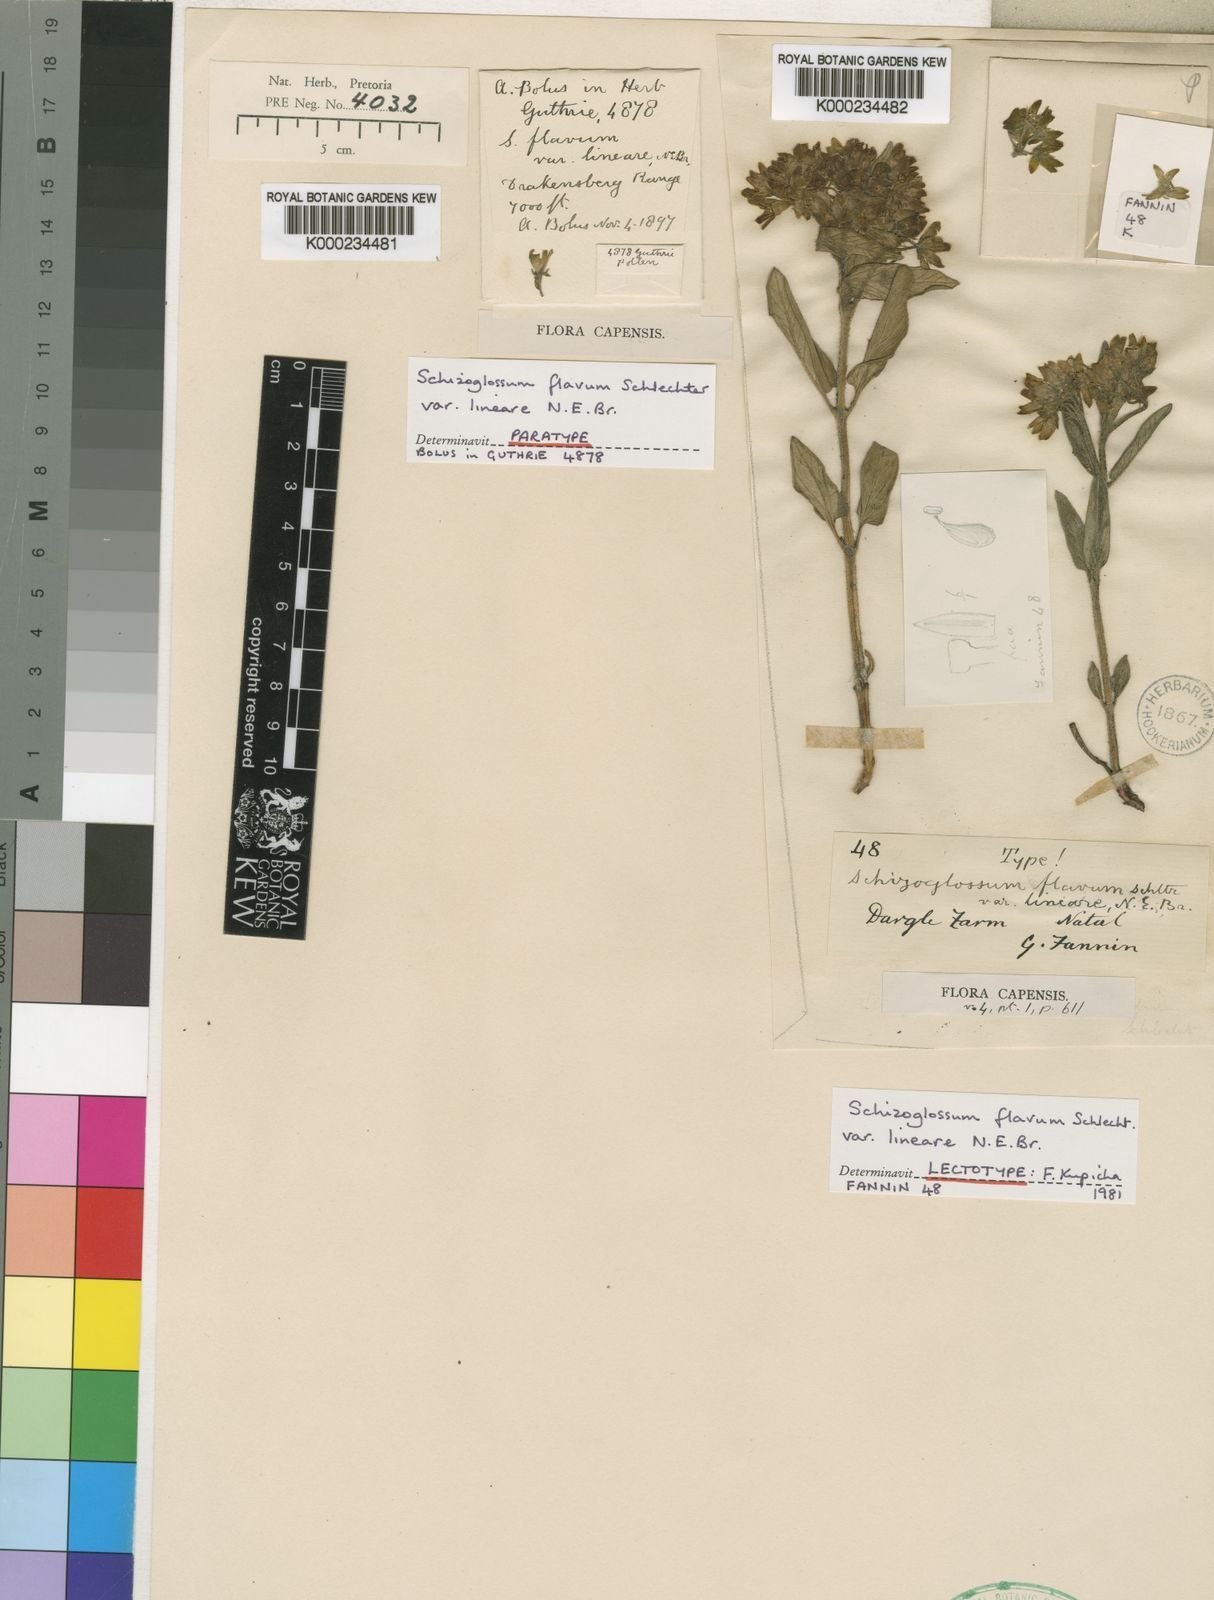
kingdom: Plantae
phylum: Tracheophyta
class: Magnoliopsida
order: Gentianales
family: Apocynaceae
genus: Schizoglossum
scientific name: Schizoglossum flavum
